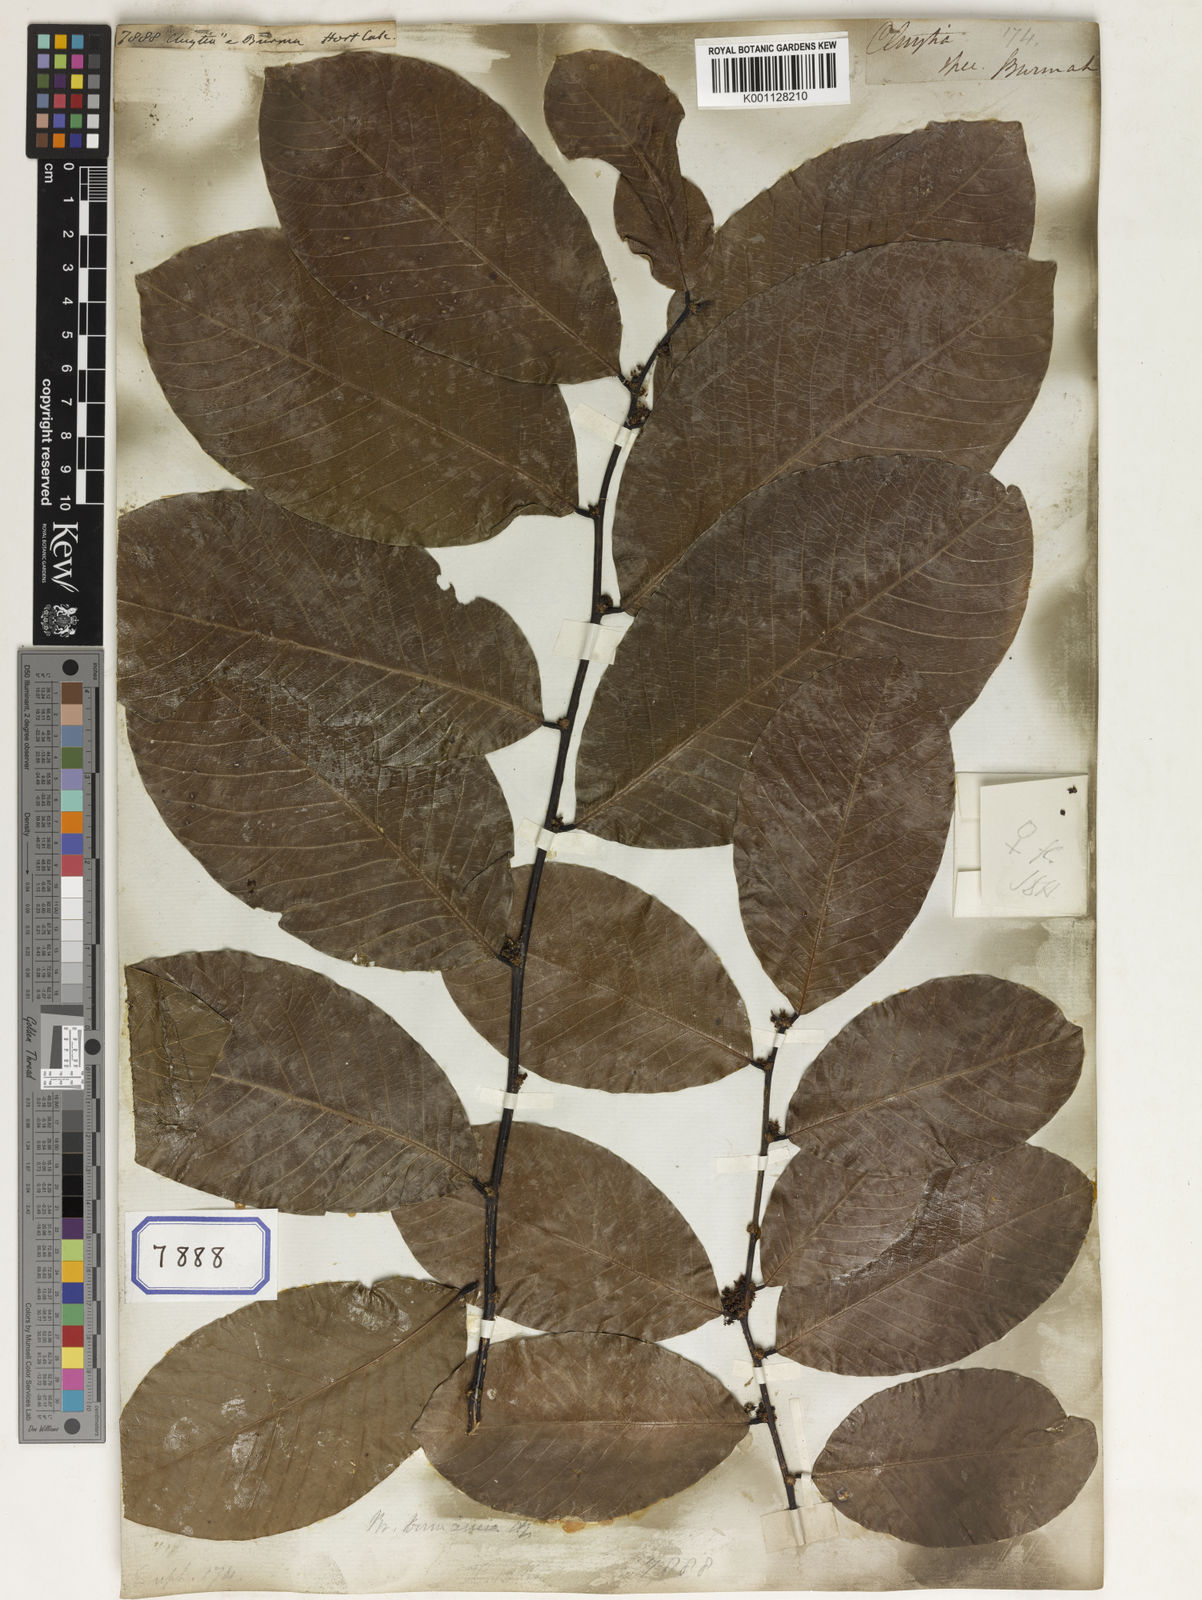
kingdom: Plantae
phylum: Tracheophyta
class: Magnoliopsida
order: Malpighiales
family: Euphorbiaceae
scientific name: Euphorbiaceae
